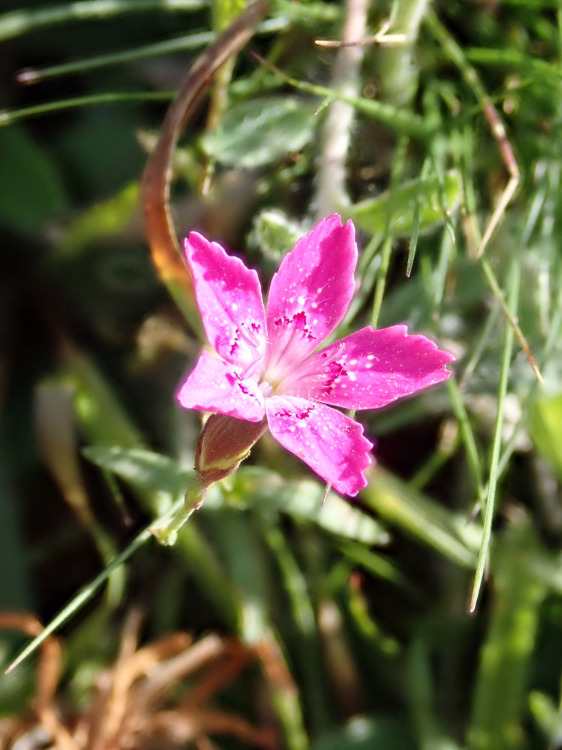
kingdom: Plantae
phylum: Tracheophyta
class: Magnoliopsida
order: Caryophyllales
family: Caryophyllaceae
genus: Dianthus
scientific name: Dianthus deltoides
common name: Bakke-nellike
